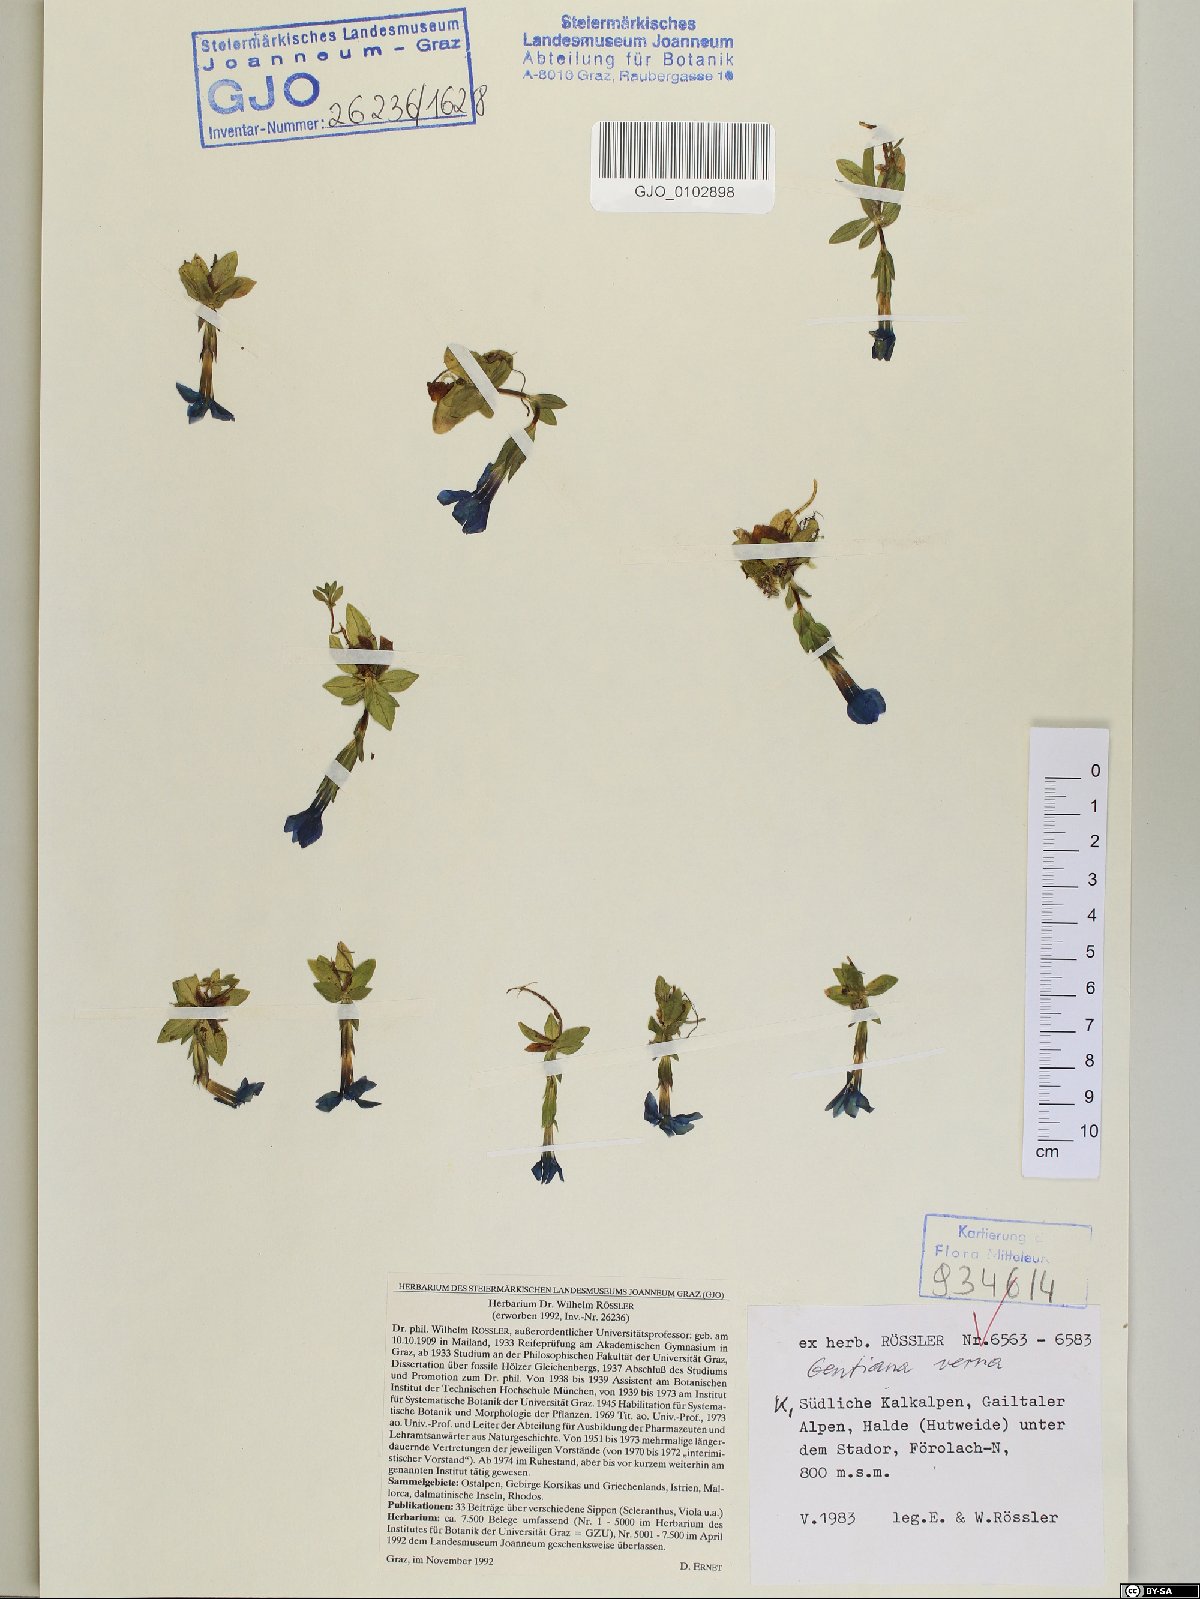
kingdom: Plantae
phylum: Tracheophyta
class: Magnoliopsida
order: Gentianales
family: Gentianaceae
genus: Gentiana
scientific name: Gentiana verna
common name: Spring gentian
